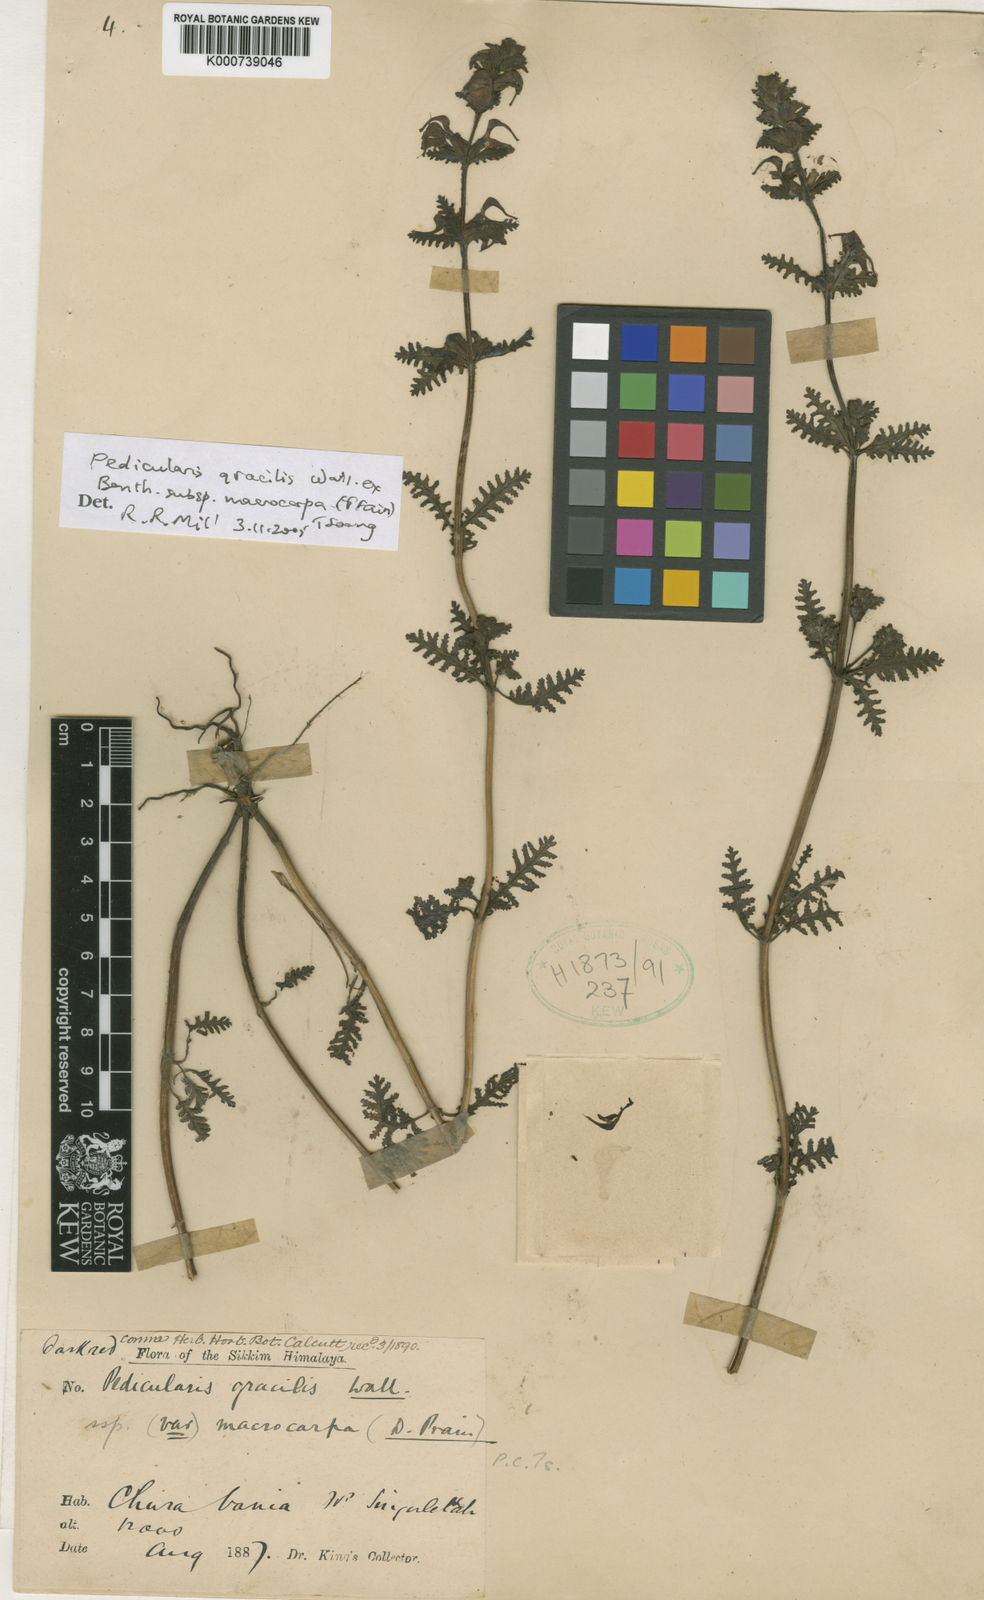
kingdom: Plantae
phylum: Tracheophyta
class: Magnoliopsida
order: Lamiales
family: Orobanchaceae
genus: Pedicularis
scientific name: Pedicularis gracilis
